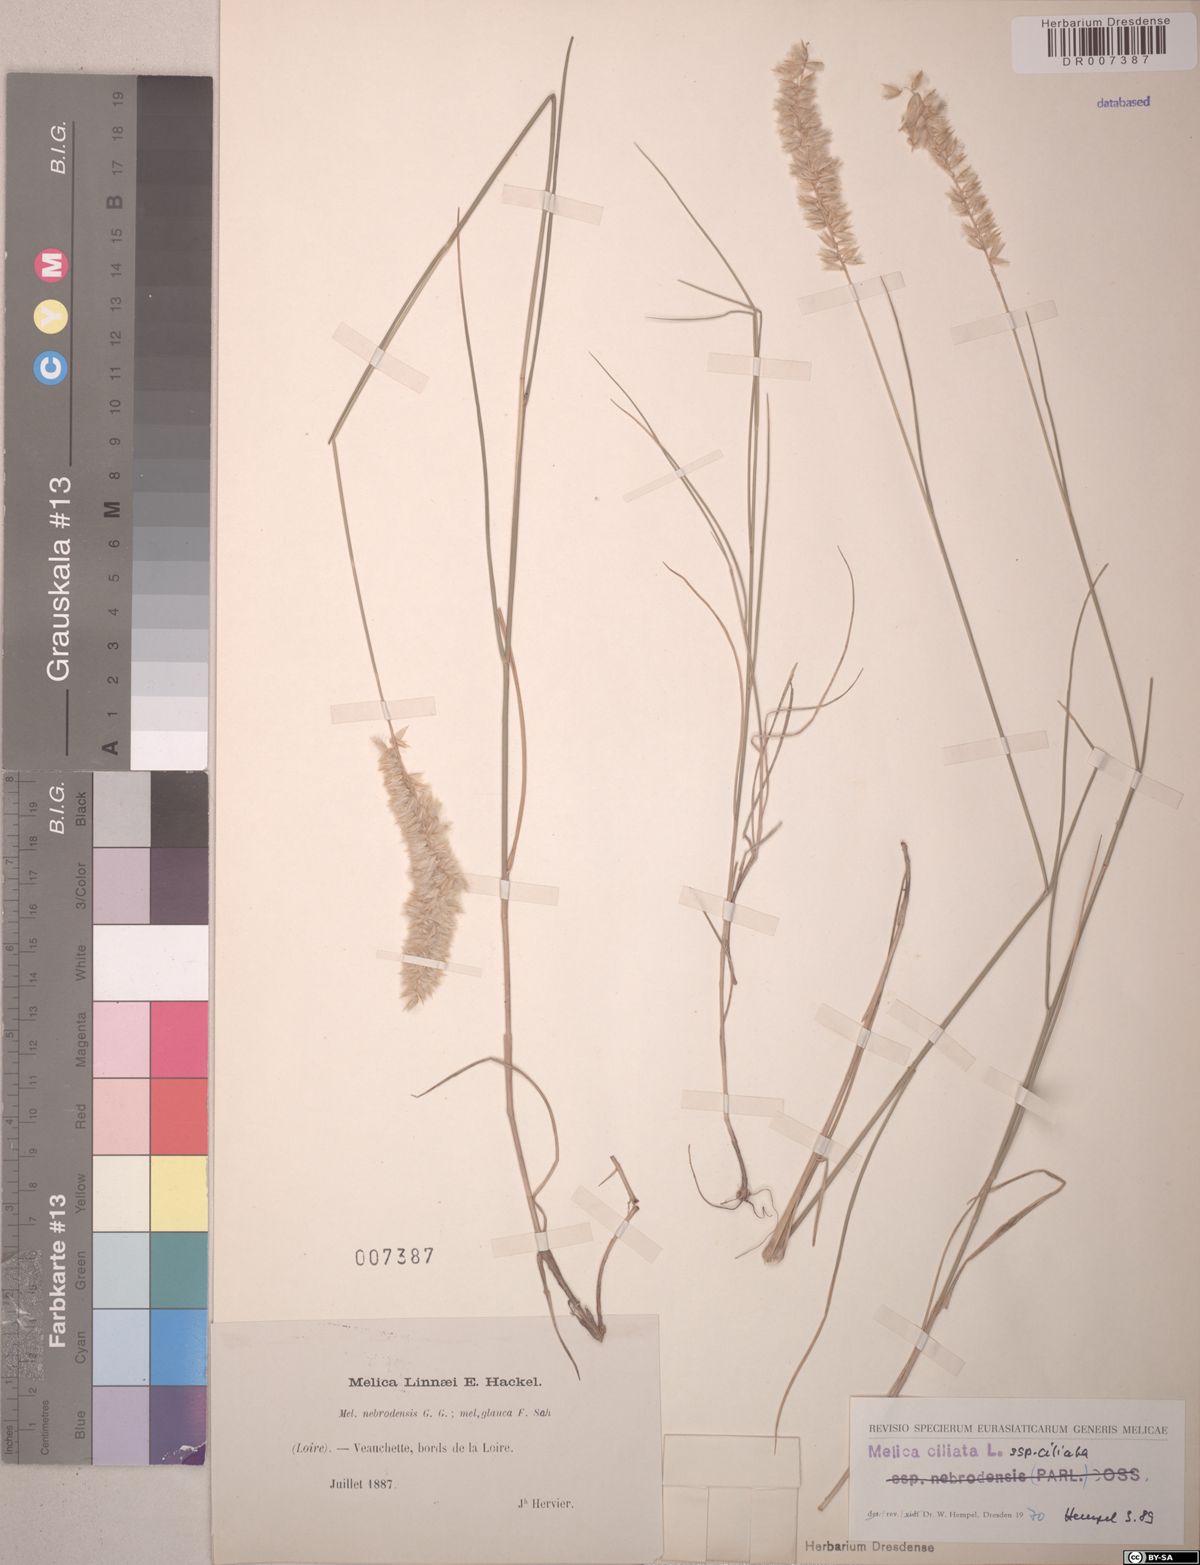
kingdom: Plantae
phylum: Tracheophyta
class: Liliopsida
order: Poales
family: Poaceae
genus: Melica
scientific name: Melica ciliata
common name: Hairy melicgrass
